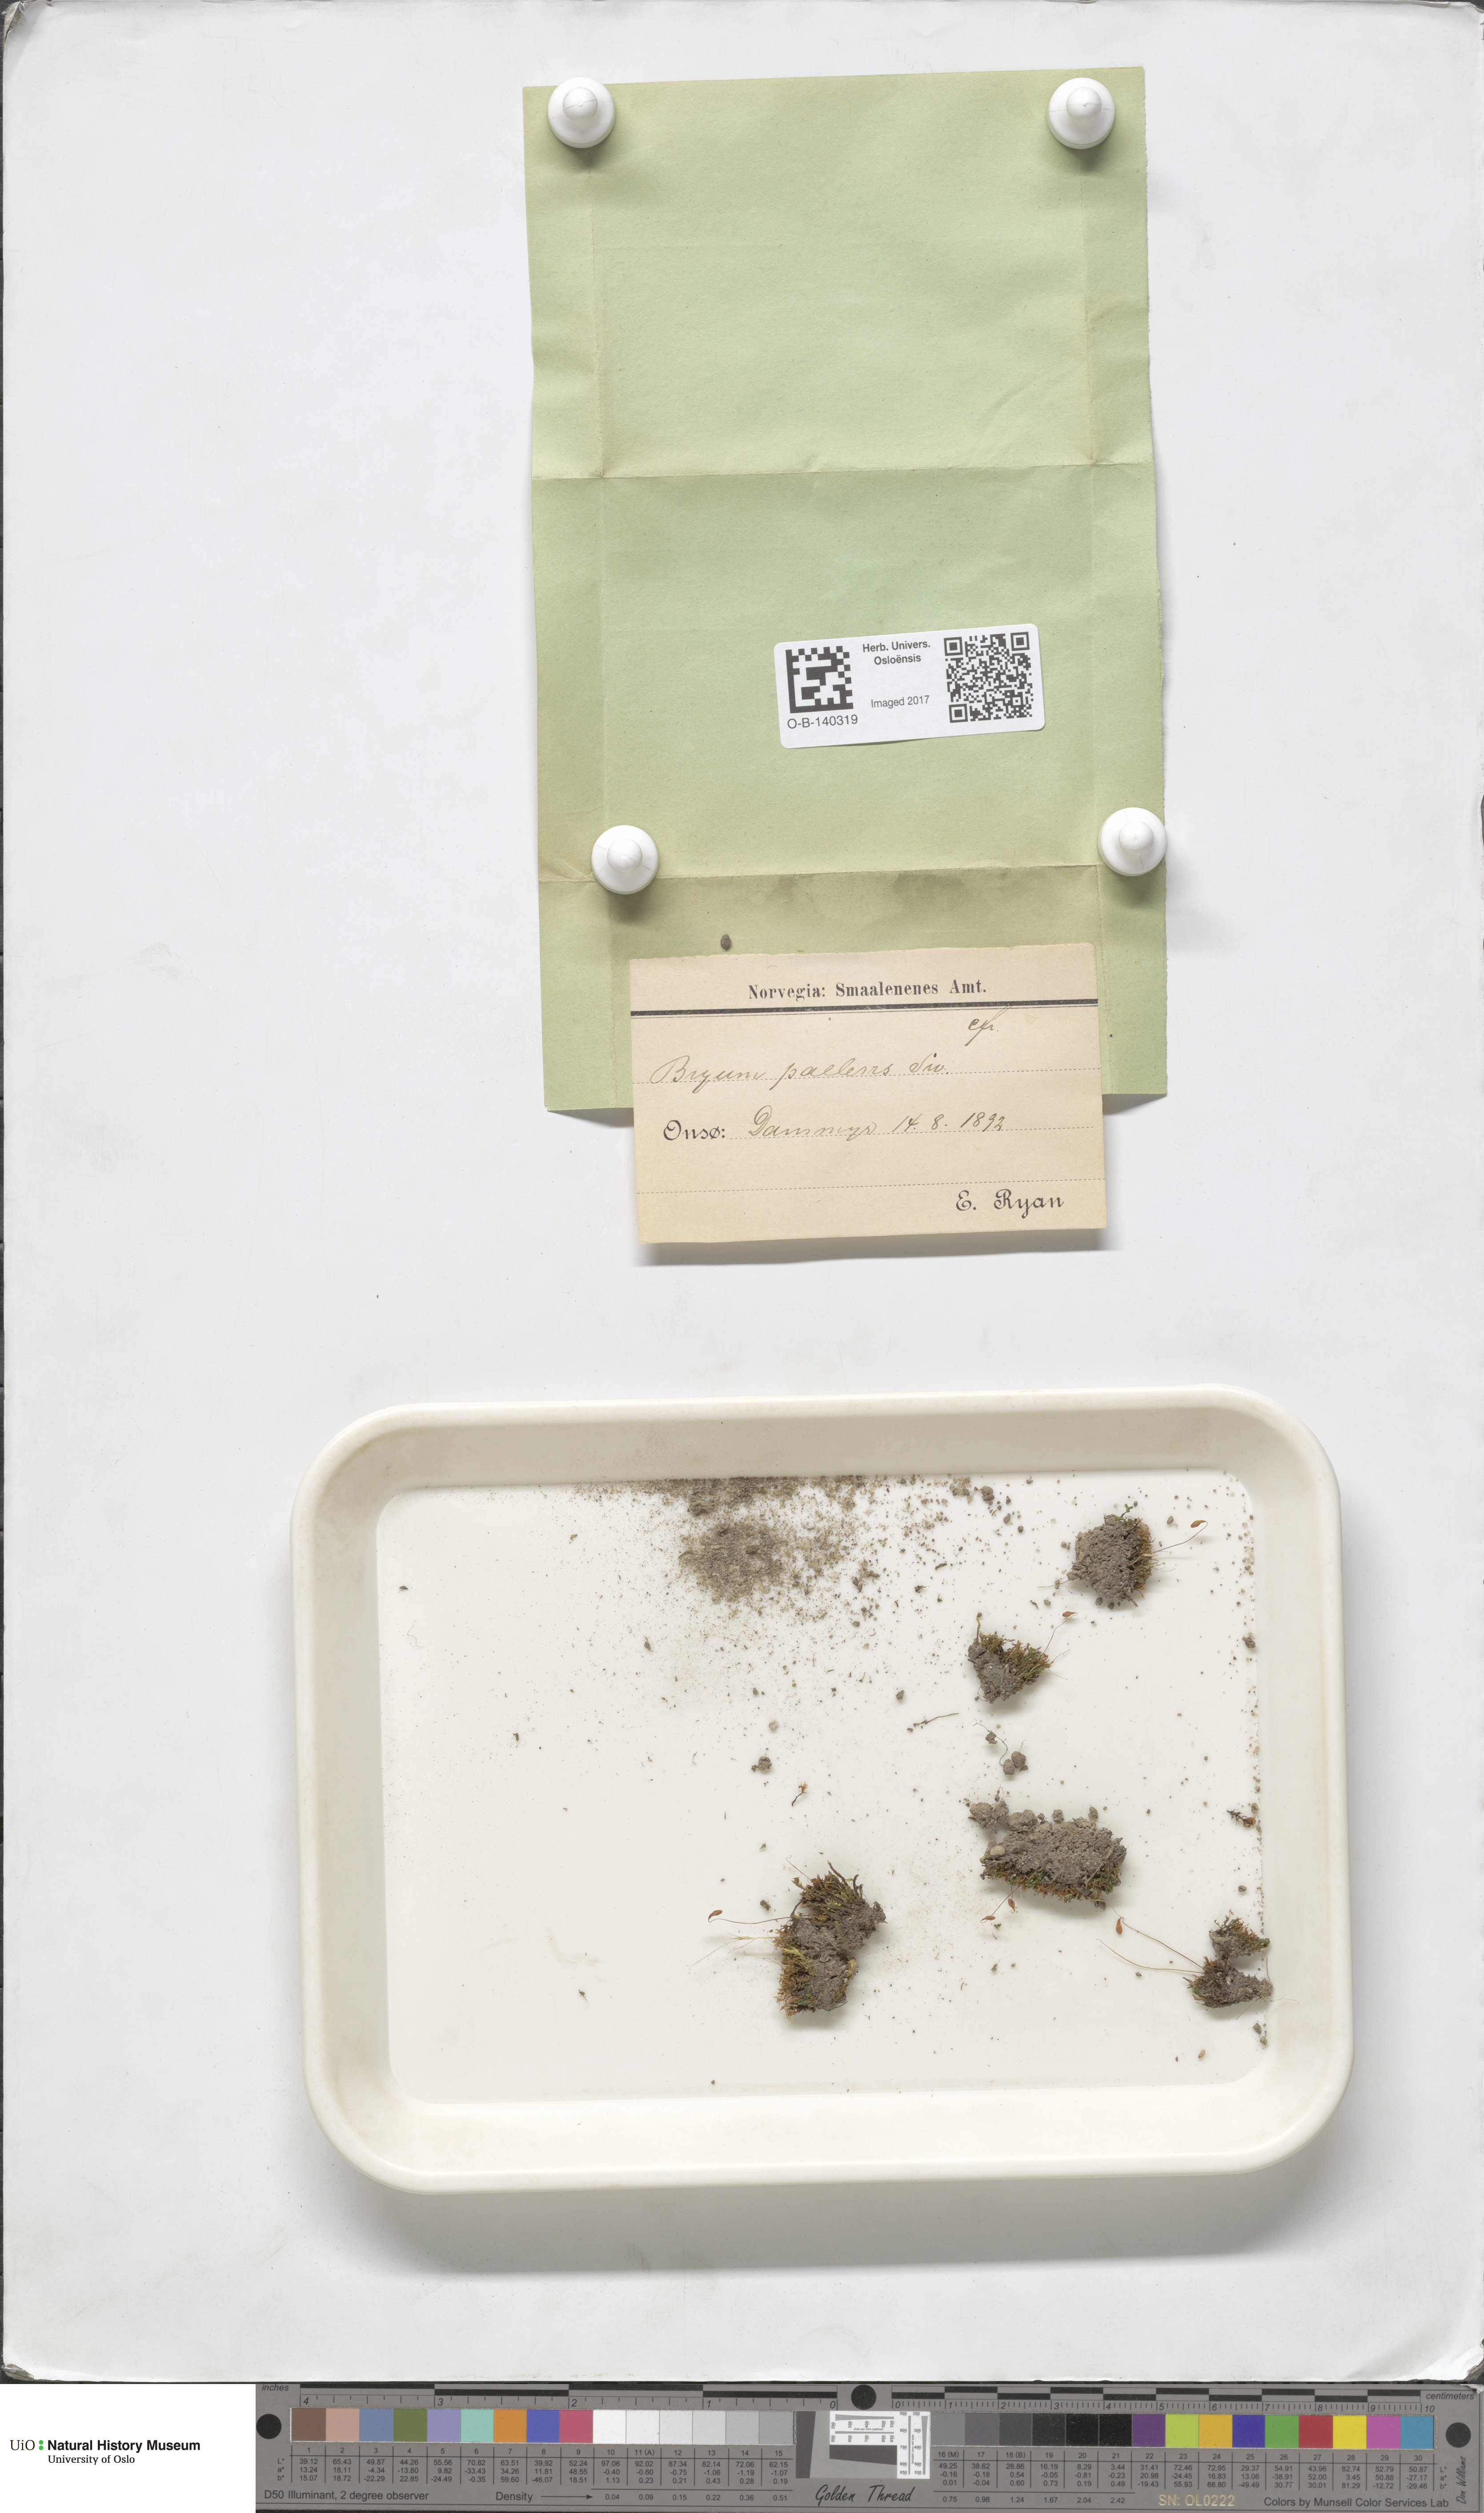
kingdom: Plantae
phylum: Bryophyta
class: Bryopsida
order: Bryales
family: Bryaceae
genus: Ptychostomum
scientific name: Ptychostomum pallens
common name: Pale thread-moss
